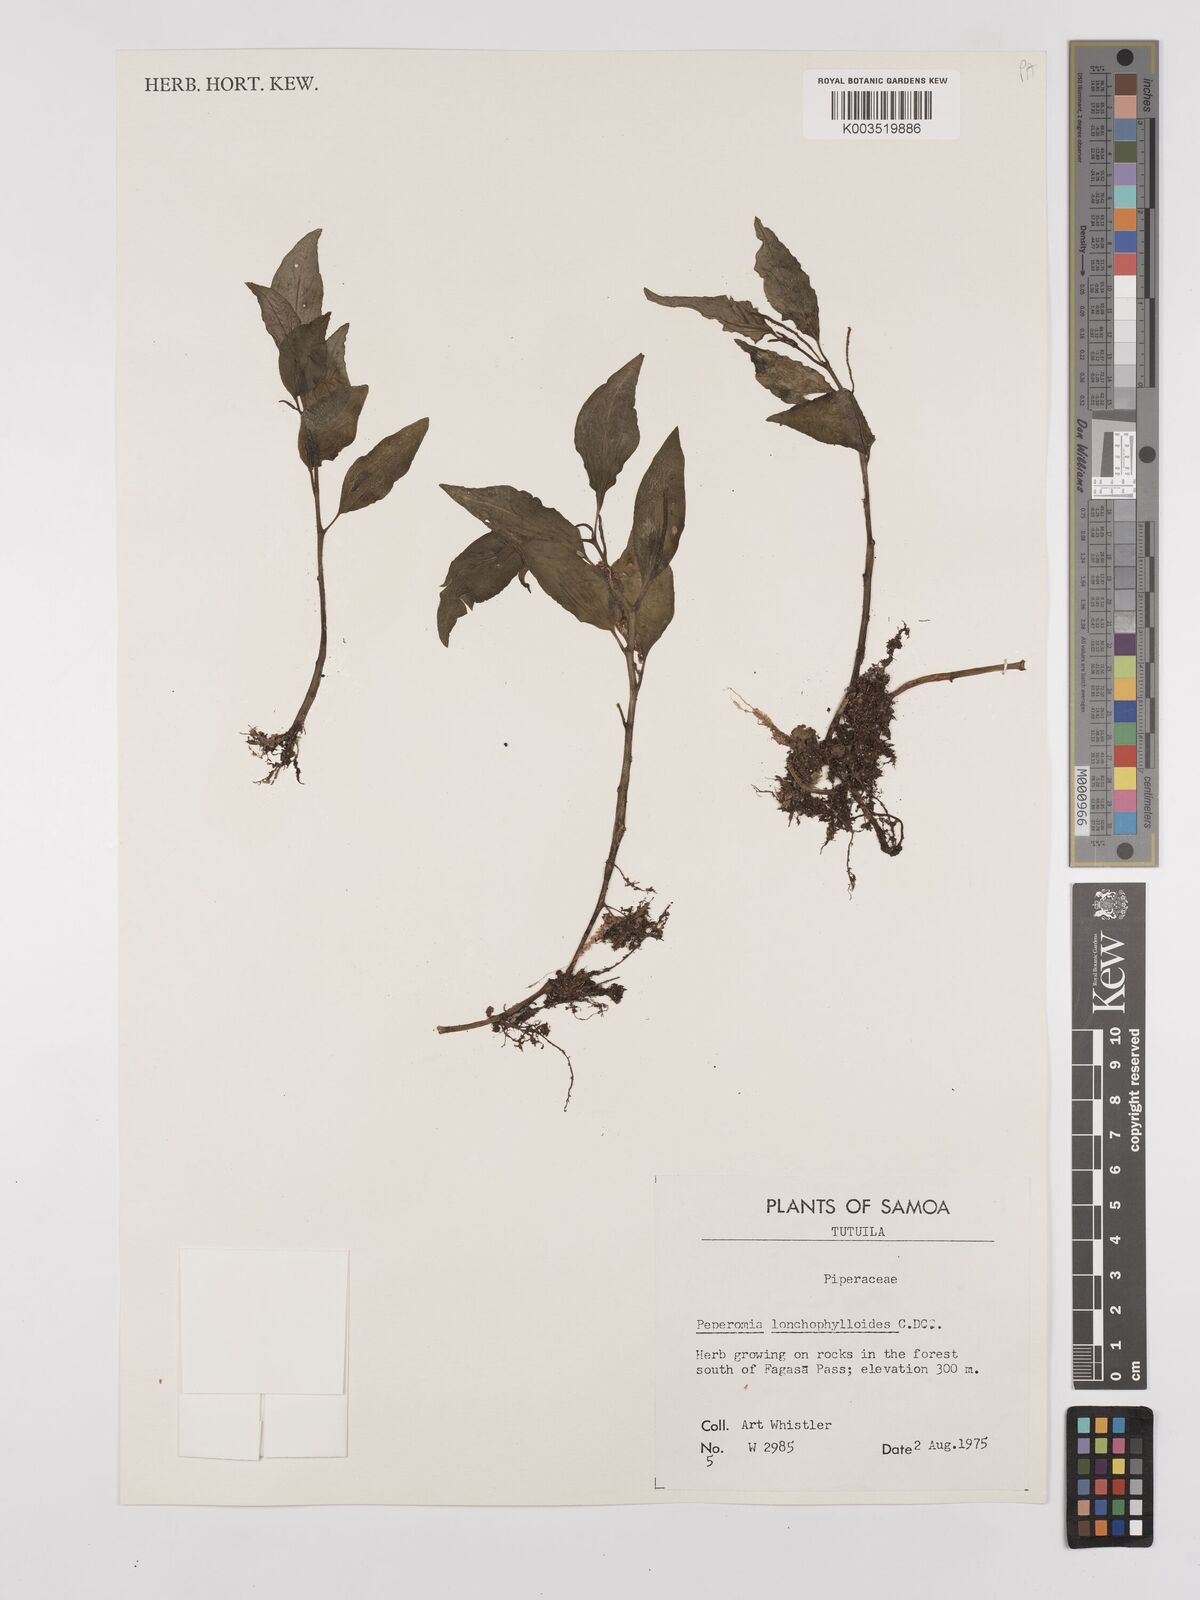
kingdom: Plantae
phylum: Tracheophyta
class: Magnoliopsida
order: Piperales
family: Piperaceae
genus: Peperomia
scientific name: Peperomia oahuensis
